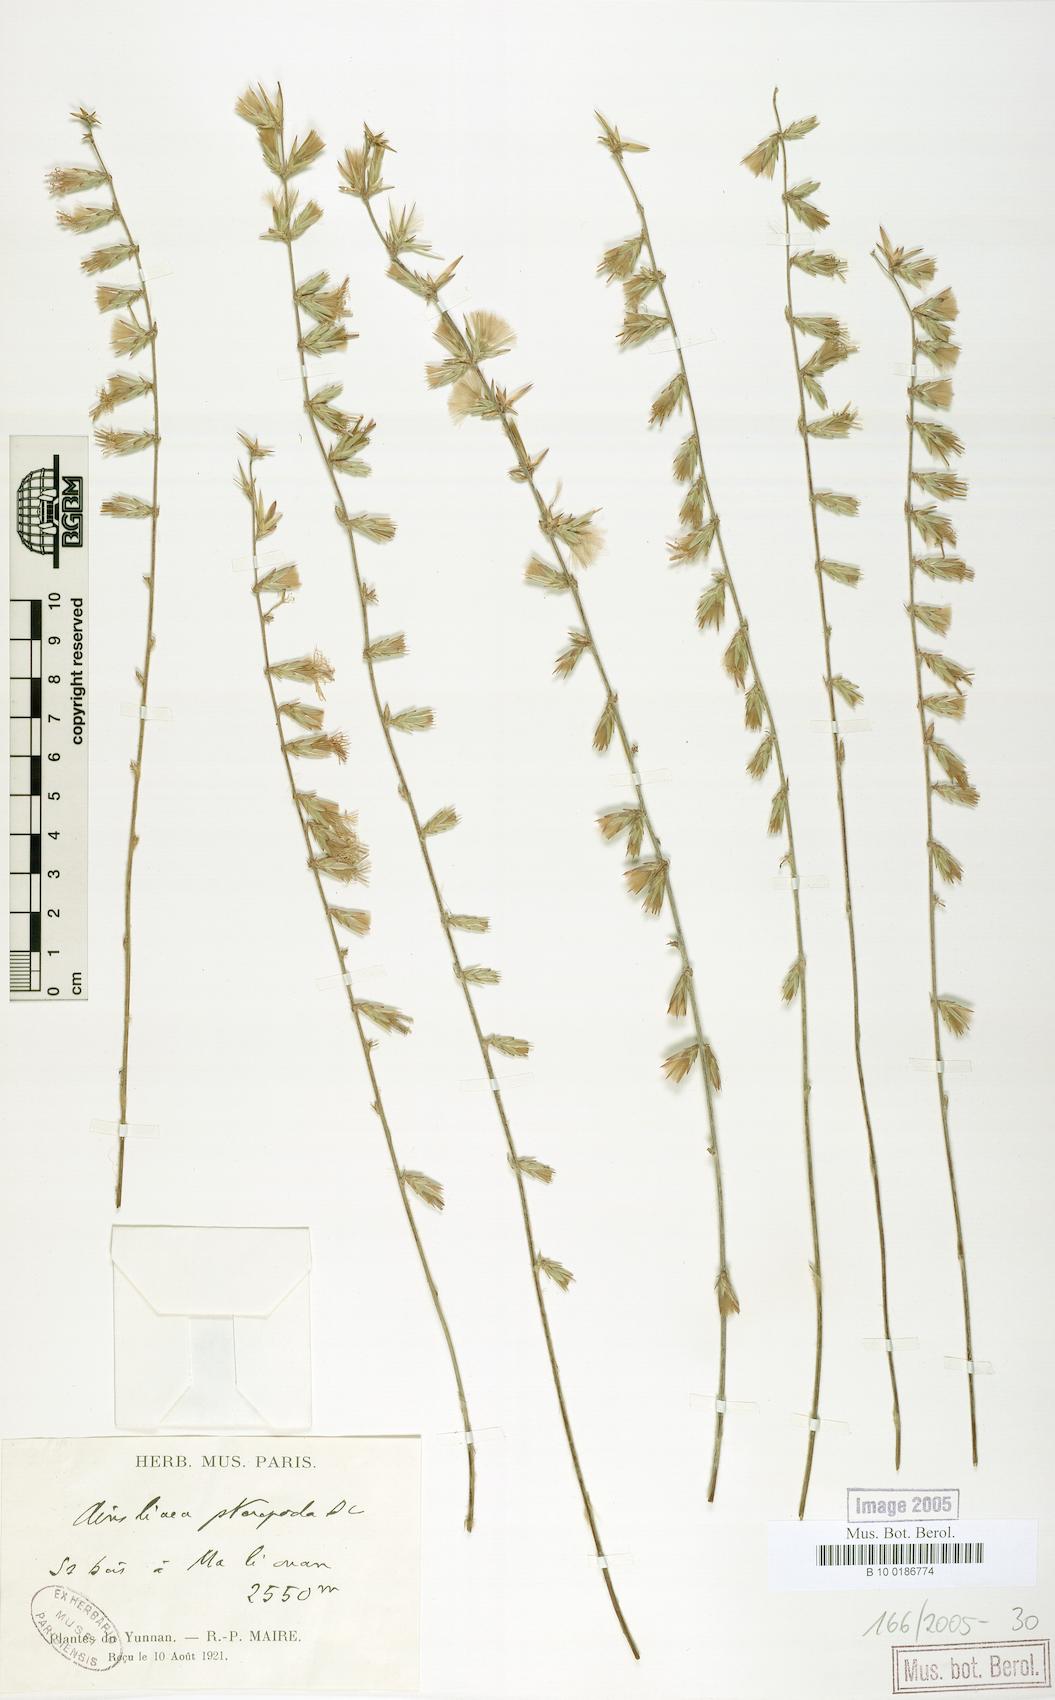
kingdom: Plantae
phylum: Tracheophyta
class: Magnoliopsida
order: Asterales
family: Asteraceae
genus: Ainsliaea
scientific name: Ainsliaea latifolia
